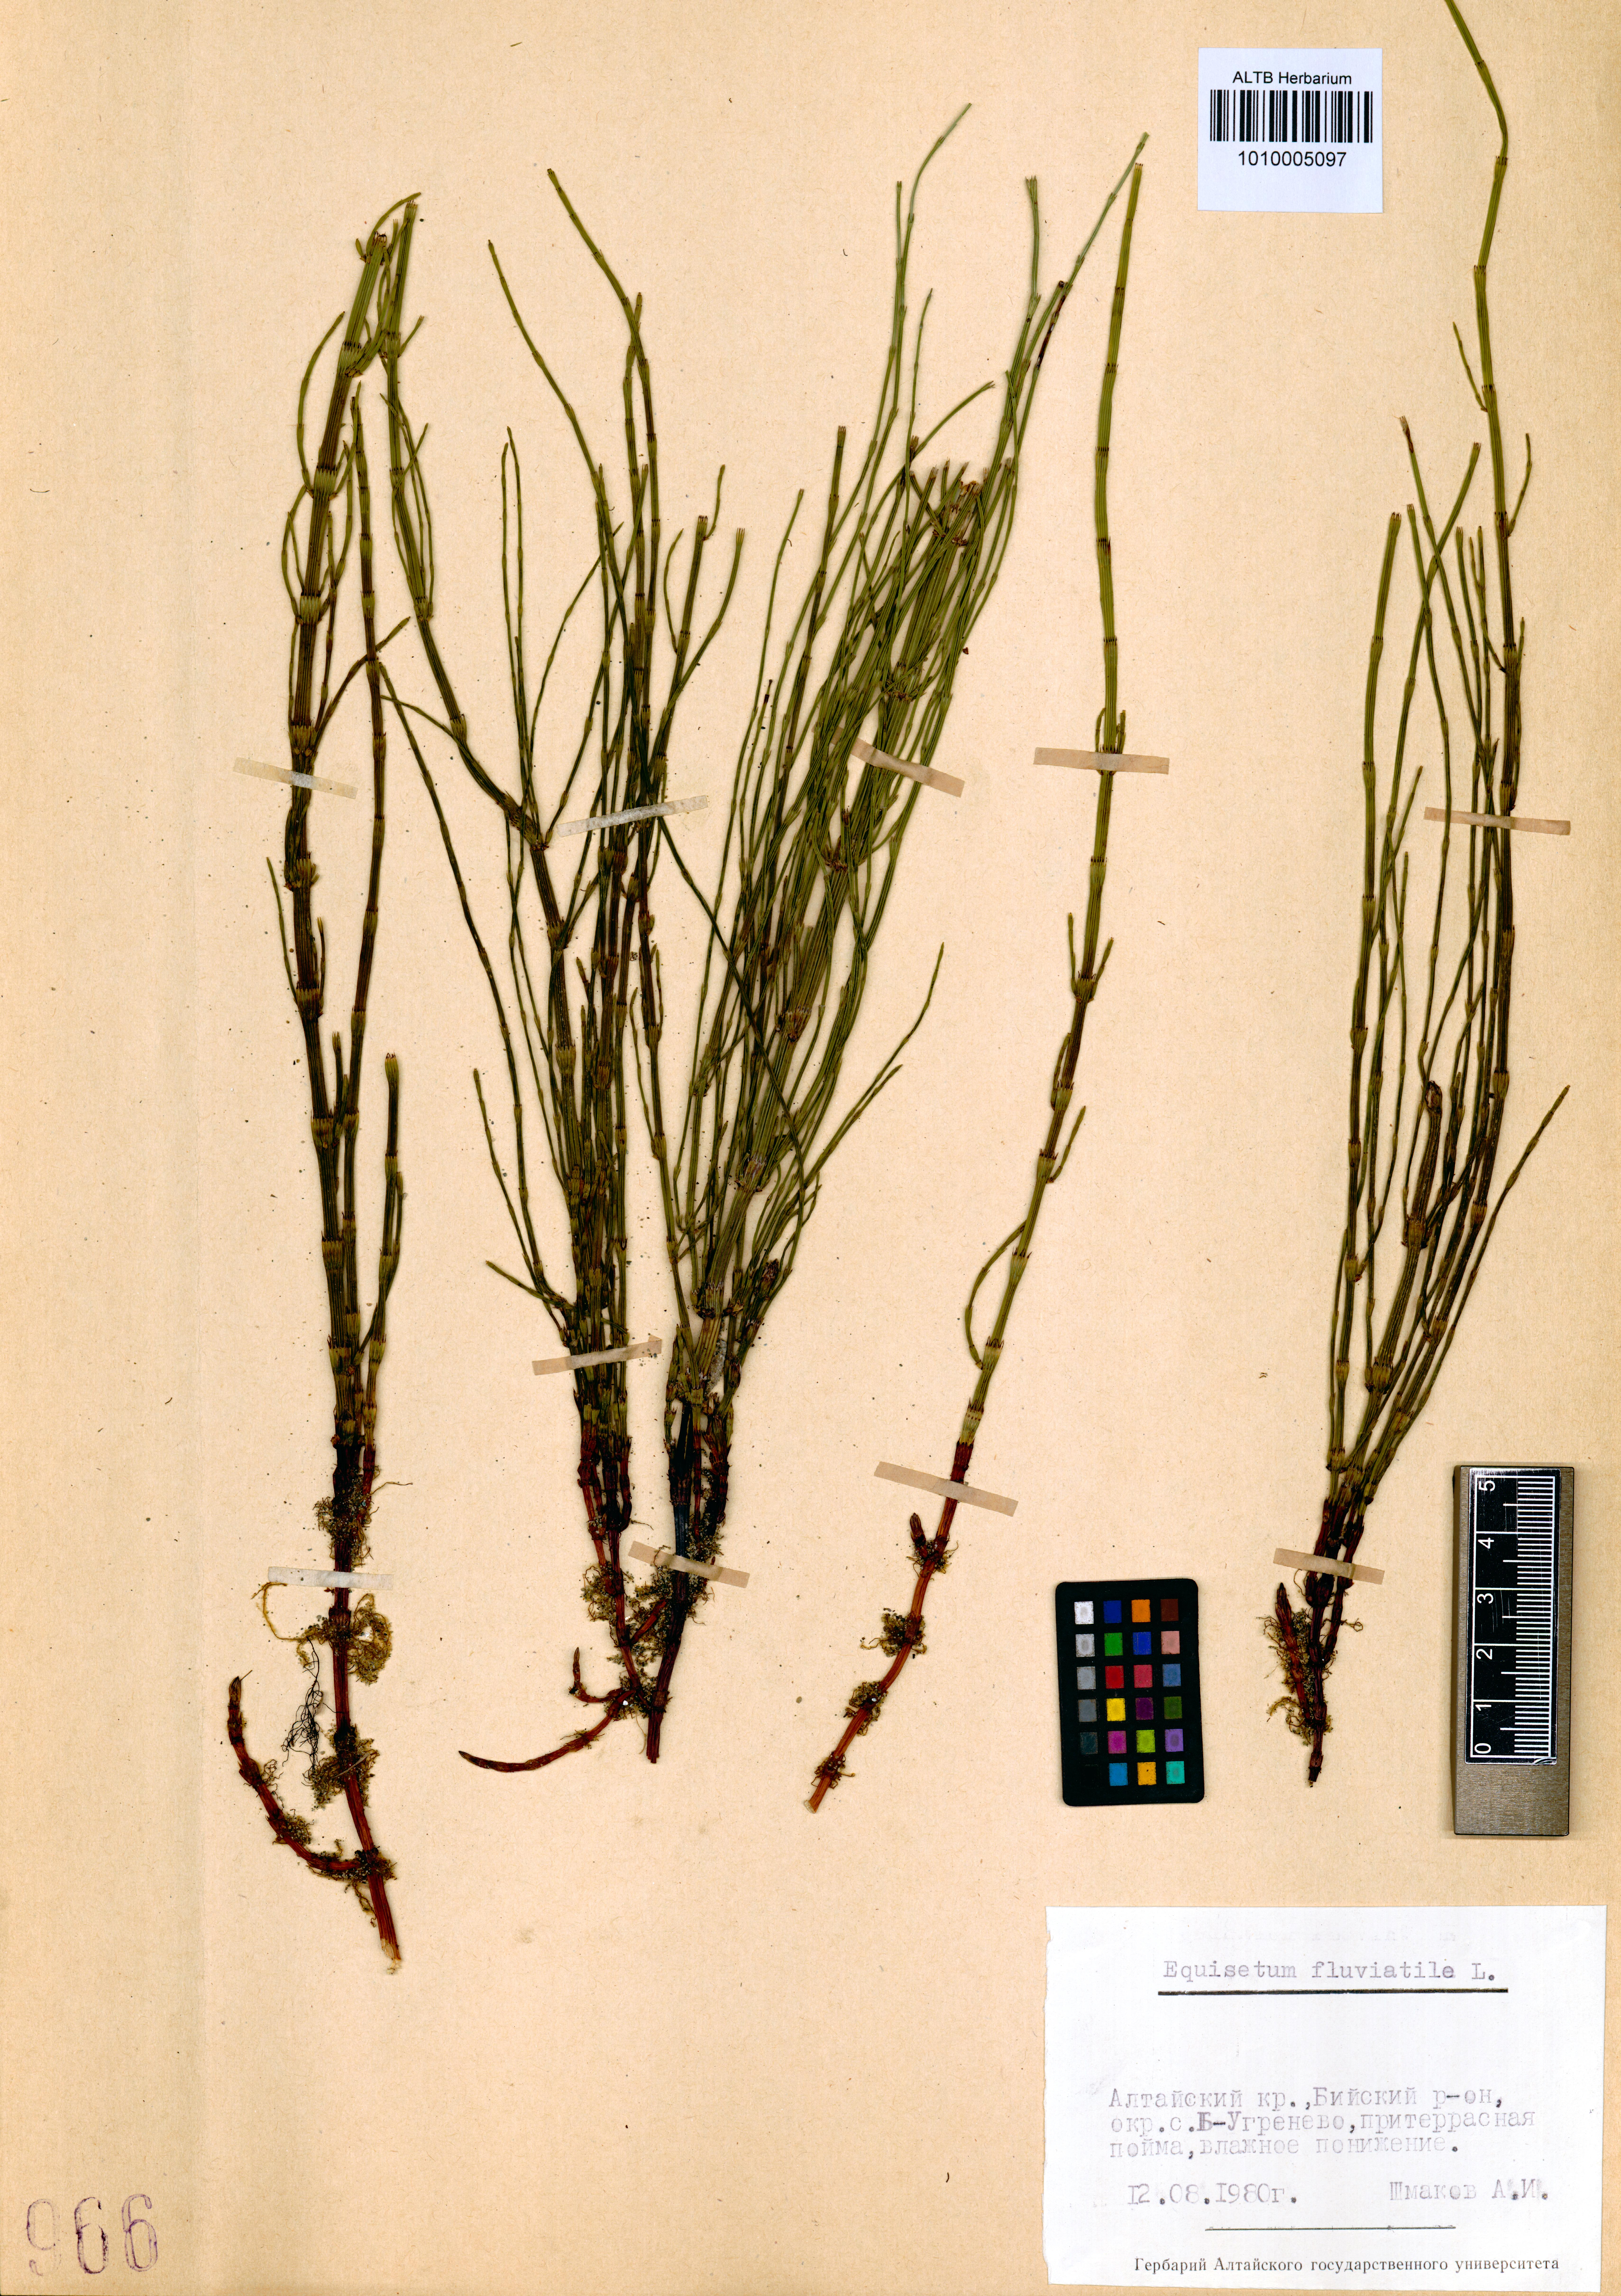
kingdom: Plantae
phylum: Tracheophyta
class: Polypodiopsida
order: Equisetales
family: Equisetaceae
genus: Equisetum
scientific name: Equisetum fluviatile
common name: Water horsetail
